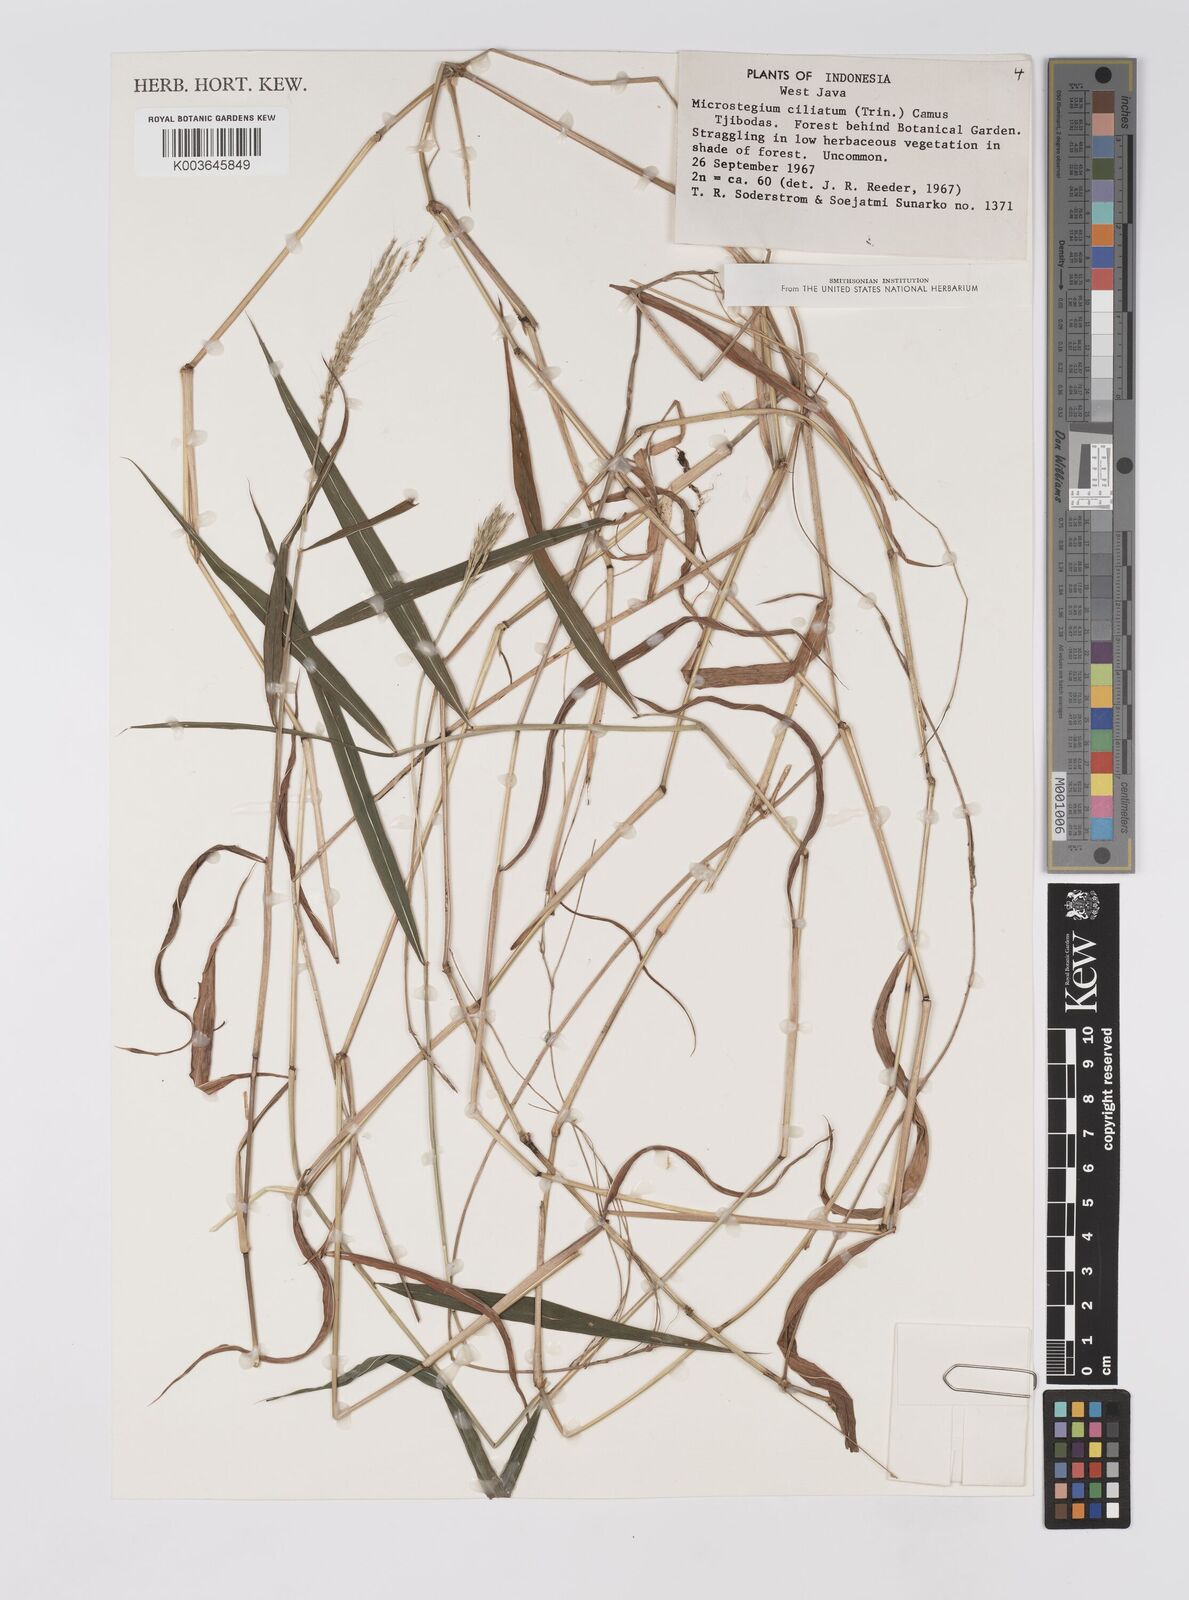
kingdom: Plantae
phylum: Tracheophyta
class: Liliopsida
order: Poales
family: Poaceae
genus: Microstegium
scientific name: Microstegium fasciculatum
